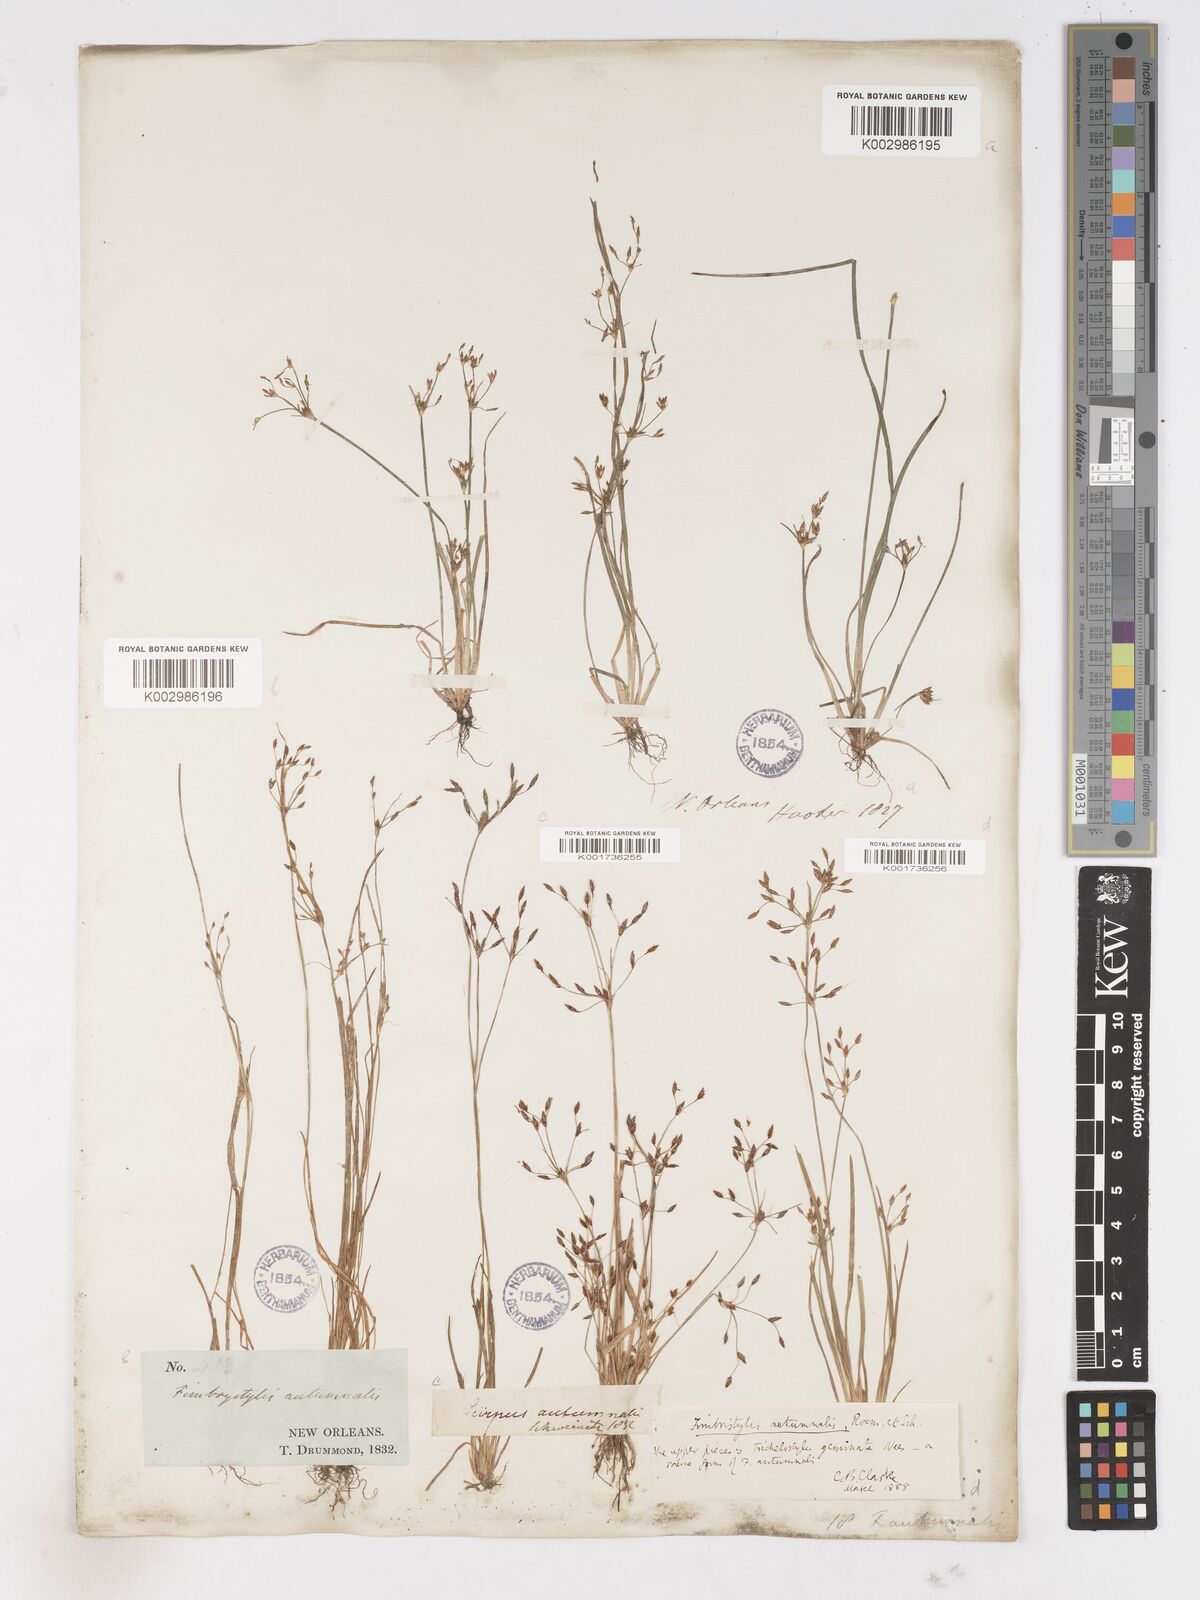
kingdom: Plantae
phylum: Tracheophyta
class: Liliopsida
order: Poales
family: Cyperaceae
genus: Fimbristylis
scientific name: Fimbristylis autumnalis
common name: Slender fimbristylis
